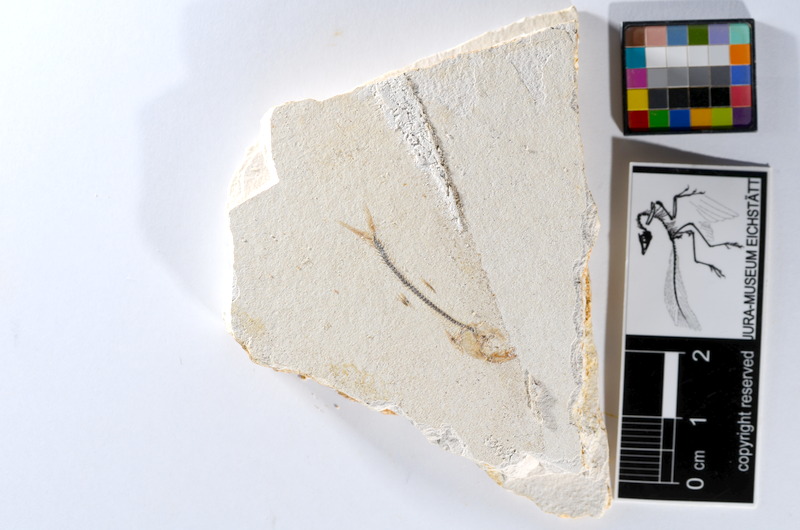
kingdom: Animalia
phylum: Chordata
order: Salmoniformes
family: Orthogonikleithridae
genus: Orthogonikleithrus
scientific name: Orthogonikleithrus hoelli
